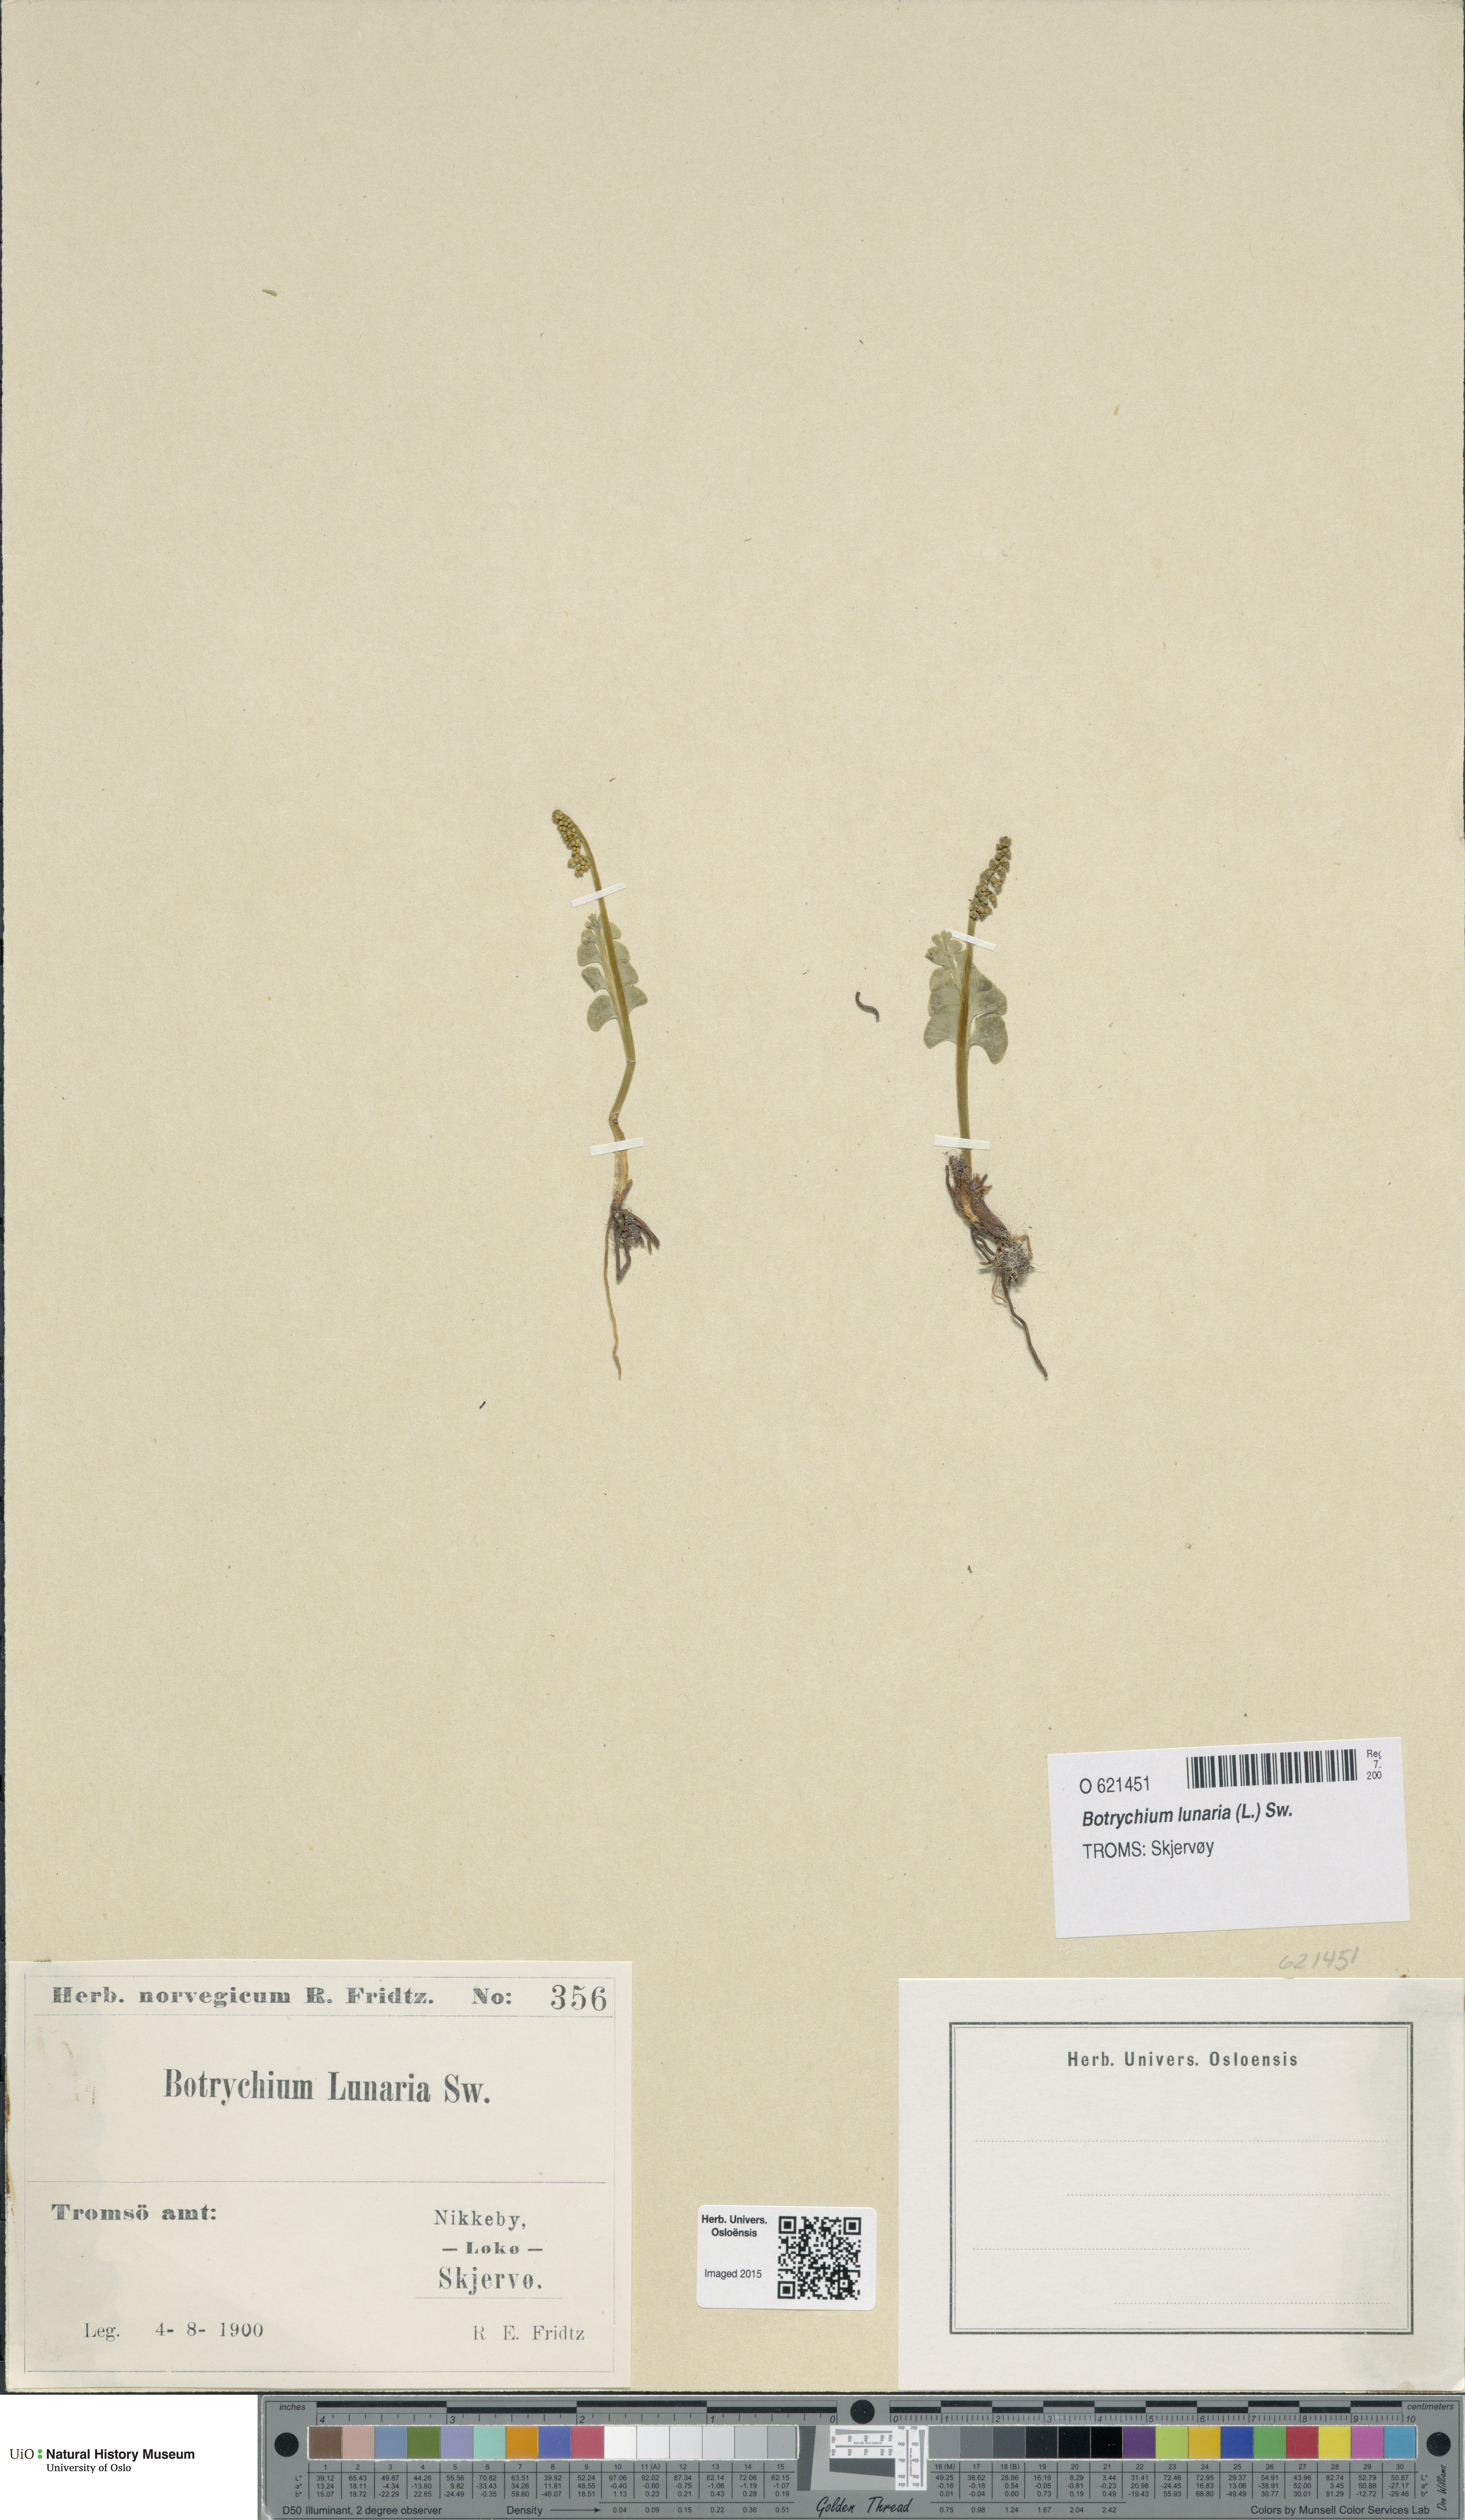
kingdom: Plantae
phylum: Tracheophyta
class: Polypodiopsida
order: Ophioglossales
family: Ophioglossaceae
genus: Botrychium
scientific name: Botrychium lunaria
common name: Moonwort
